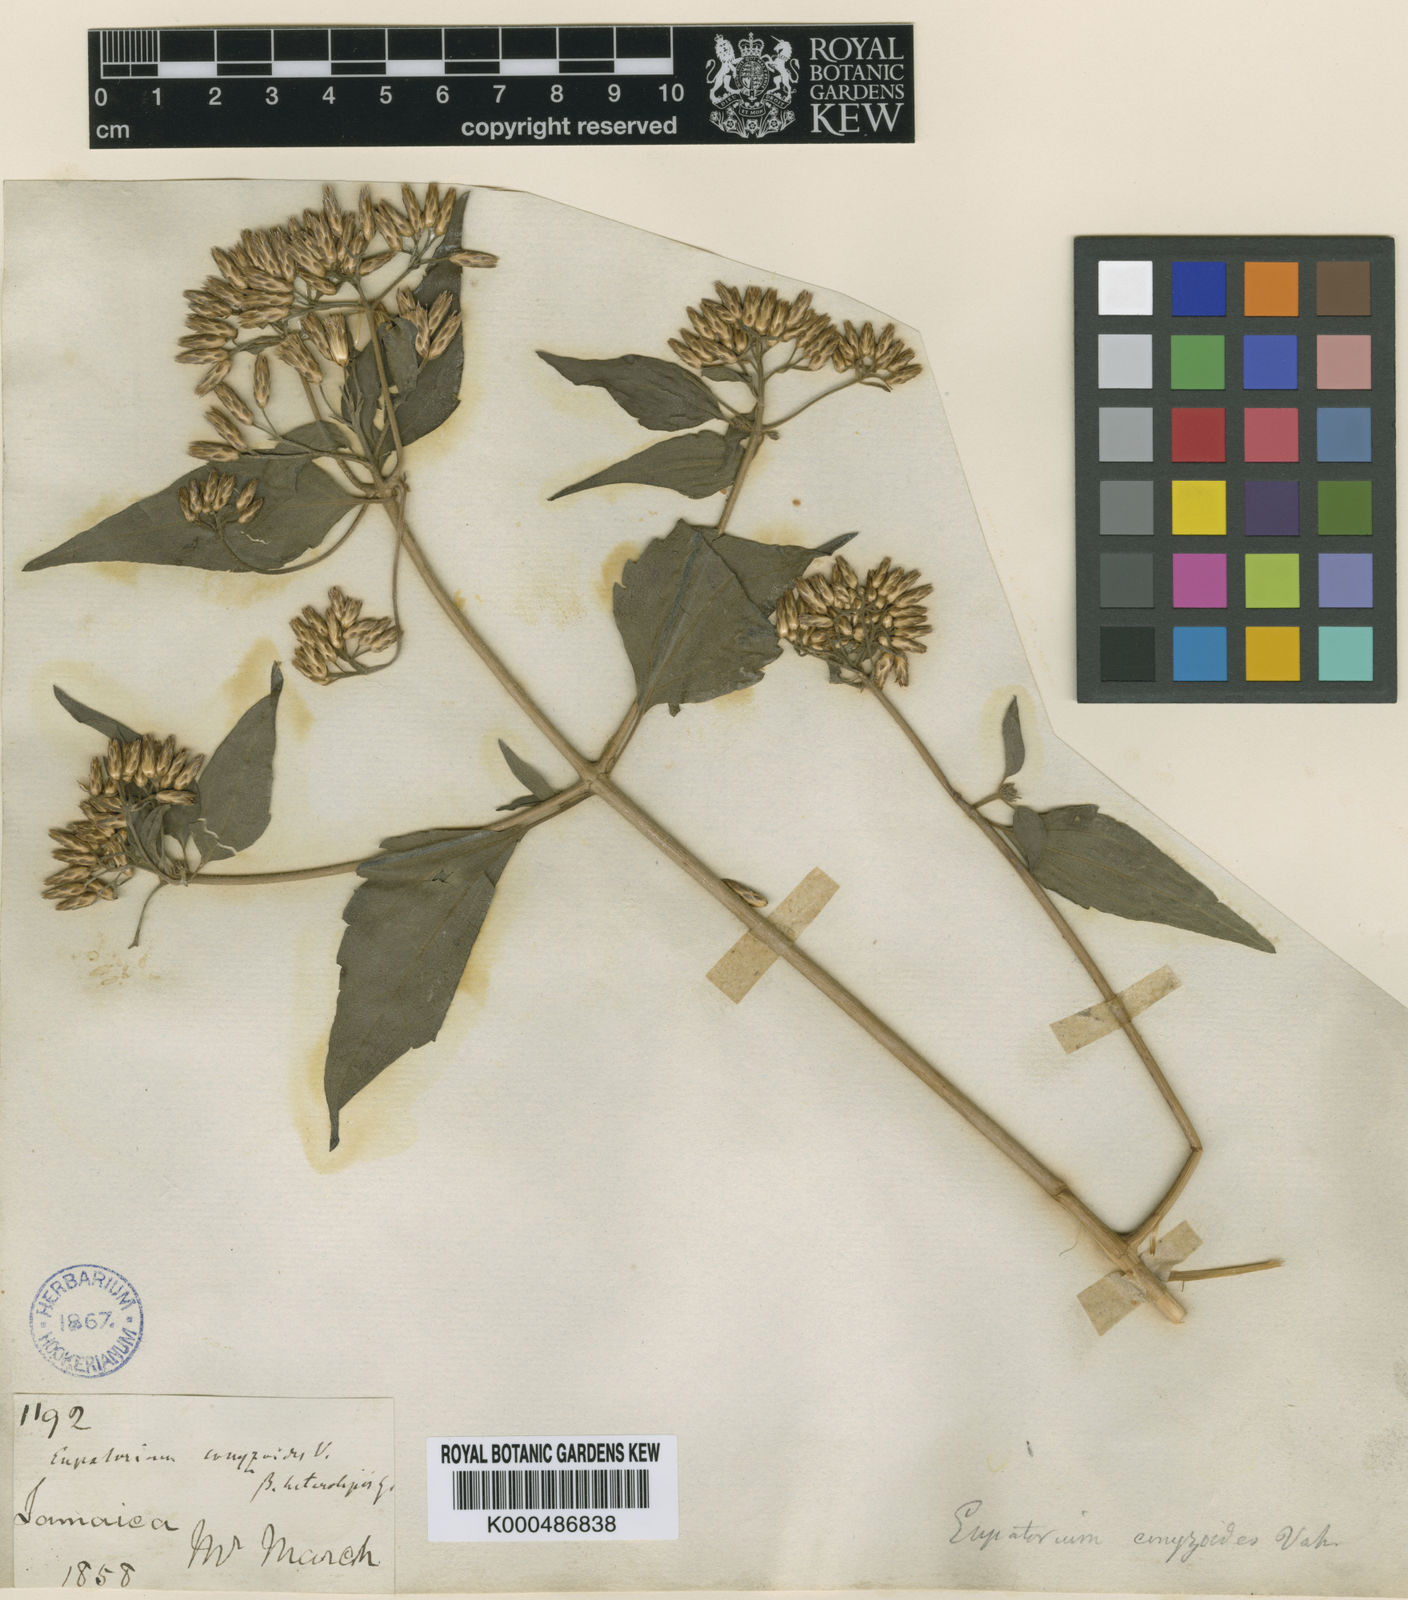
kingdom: Plantae
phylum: Tracheophyta
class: Magnoliopsida
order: Asterales
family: Asteraceae
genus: Chromolaena
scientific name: Chromolaena odorata
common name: Siamweed
